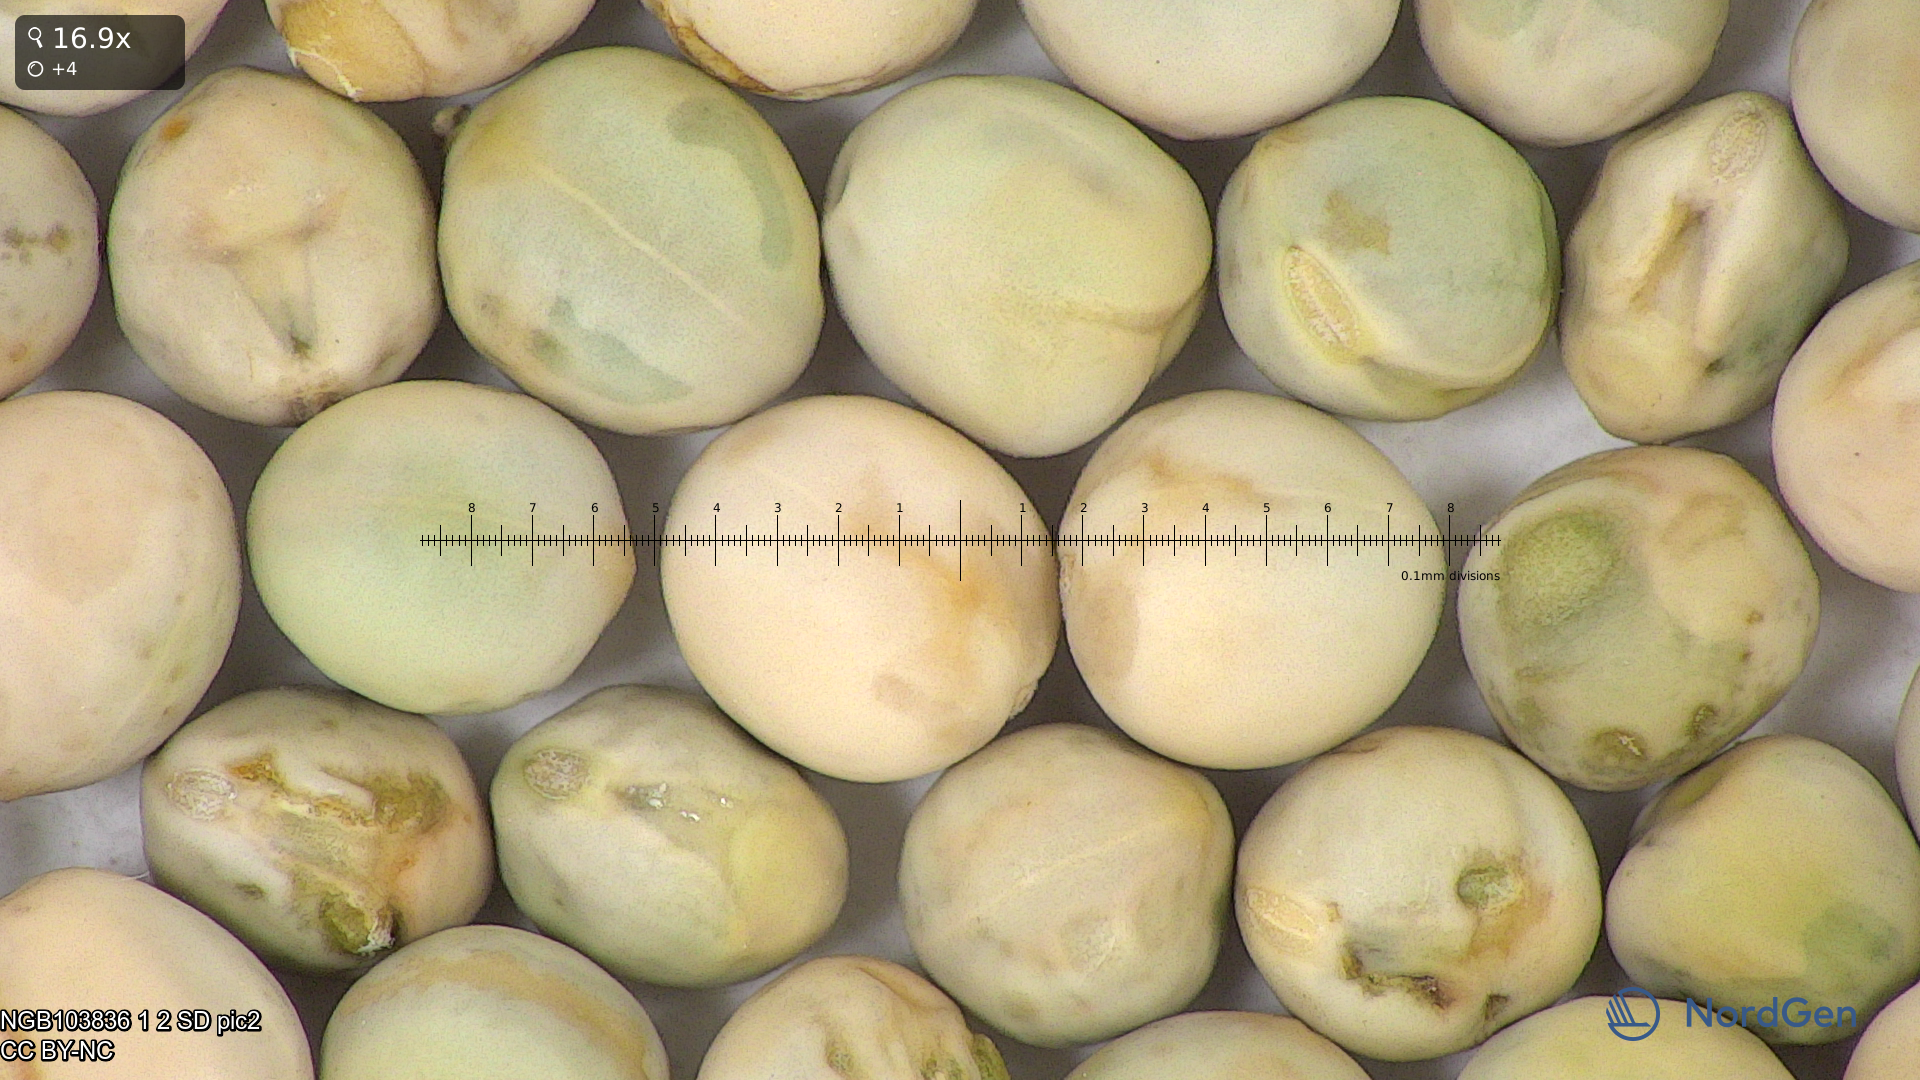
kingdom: Plantae
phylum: Tracheophyta
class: Magnoliopsida
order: Fabales
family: Fabaceae
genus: Lathyrus
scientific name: Lathyrus oleraceus
